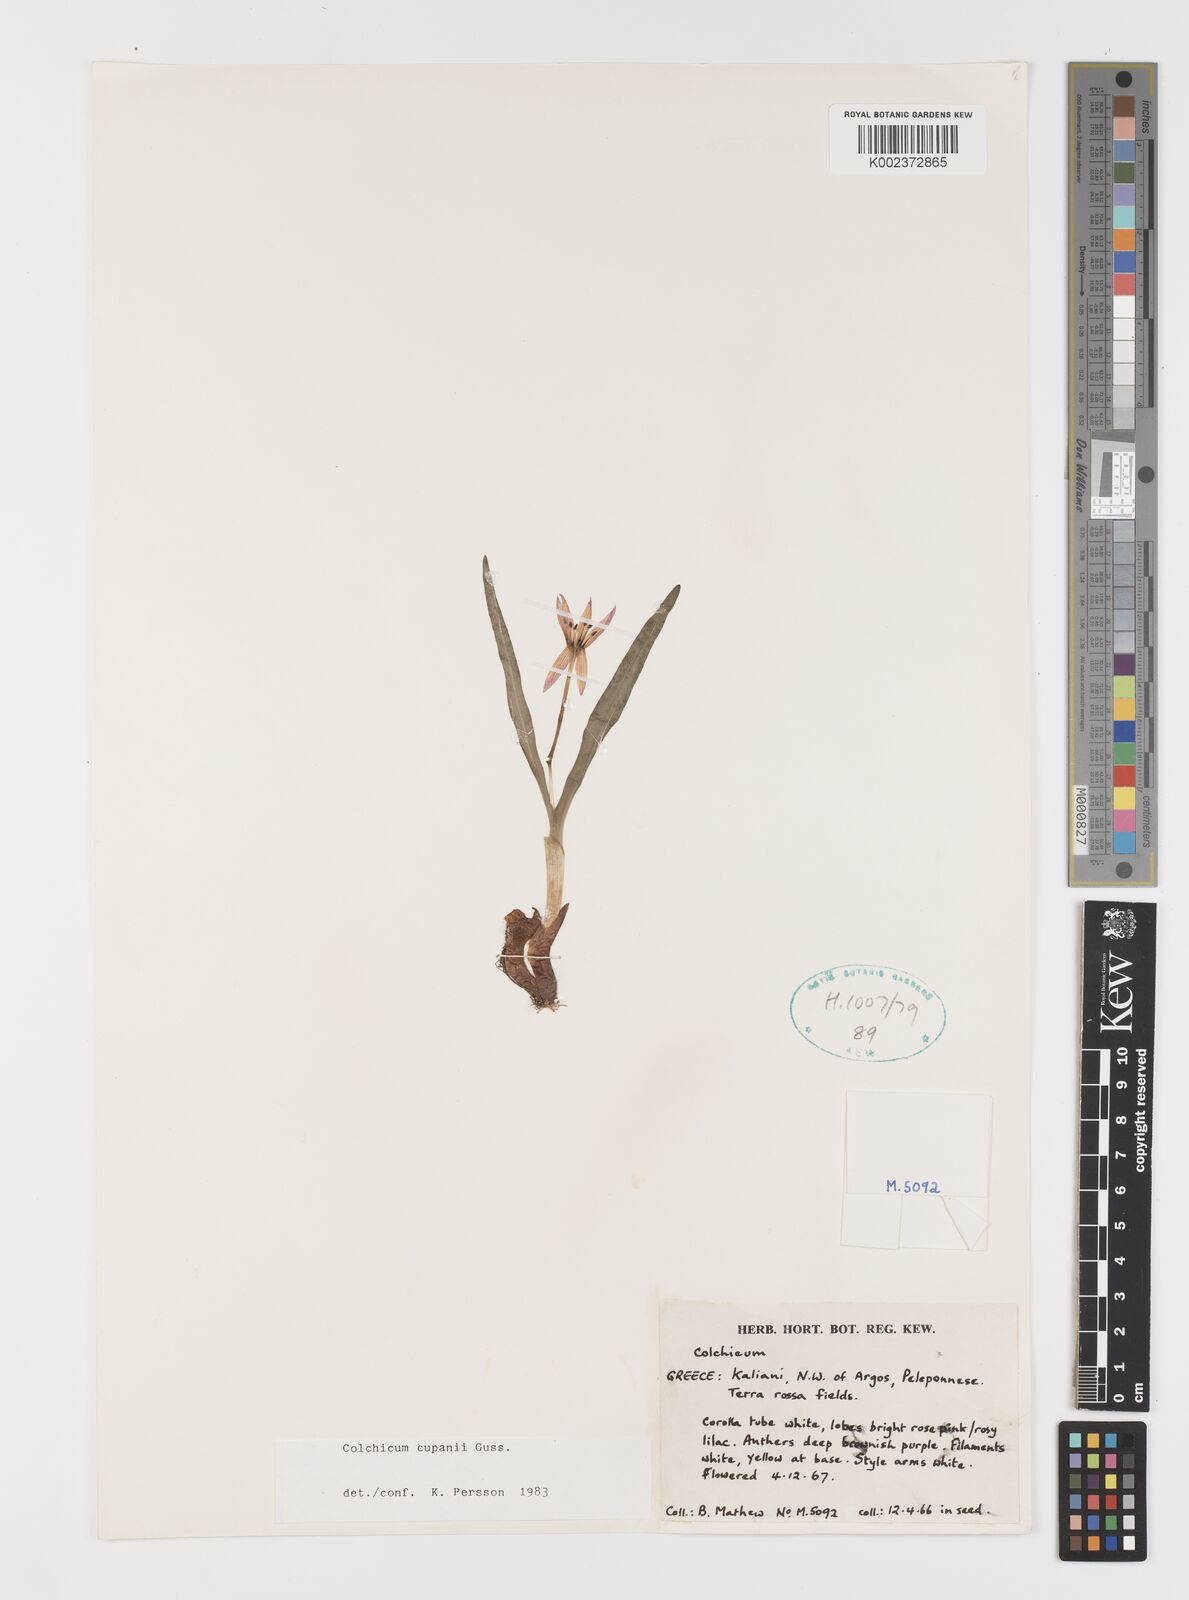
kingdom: Plantae
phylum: Tracheophyta
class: Liliopsida
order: Liliales
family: Colchicaceae
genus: Colchicum
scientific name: Colchicum cupanii
